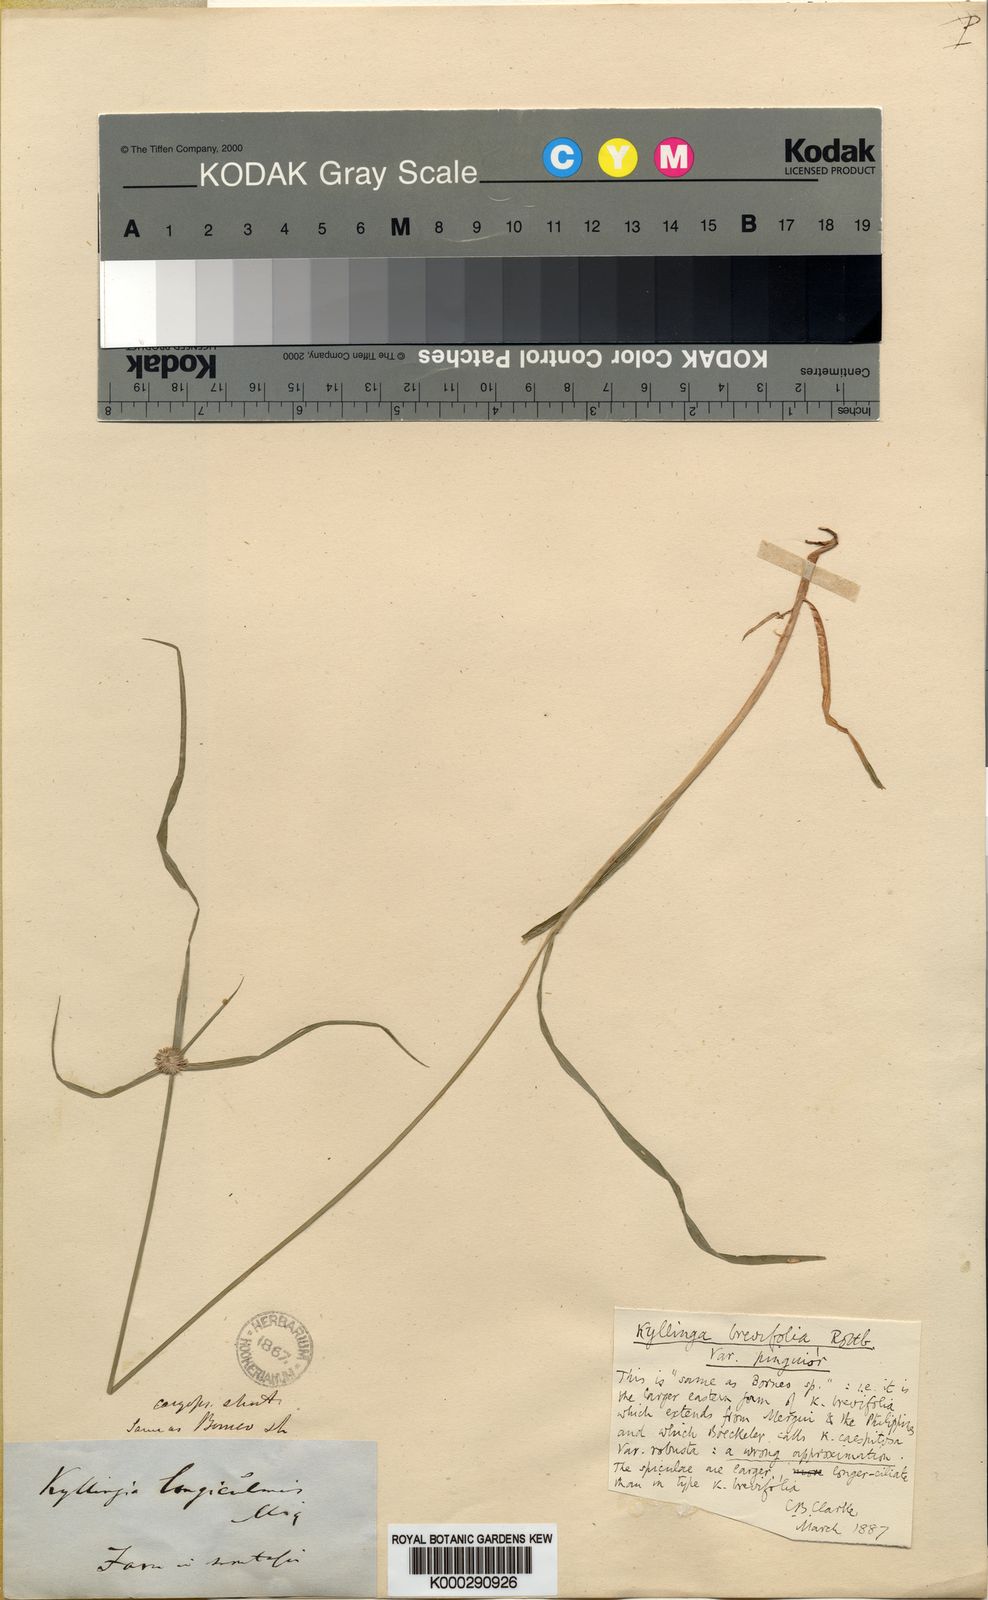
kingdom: Plantae
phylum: Tracheophyta
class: Liliopsida
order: Poales
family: Cyperaceae
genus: Cyperus
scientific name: Cyperus brevifolius
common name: Globe kyllinga
